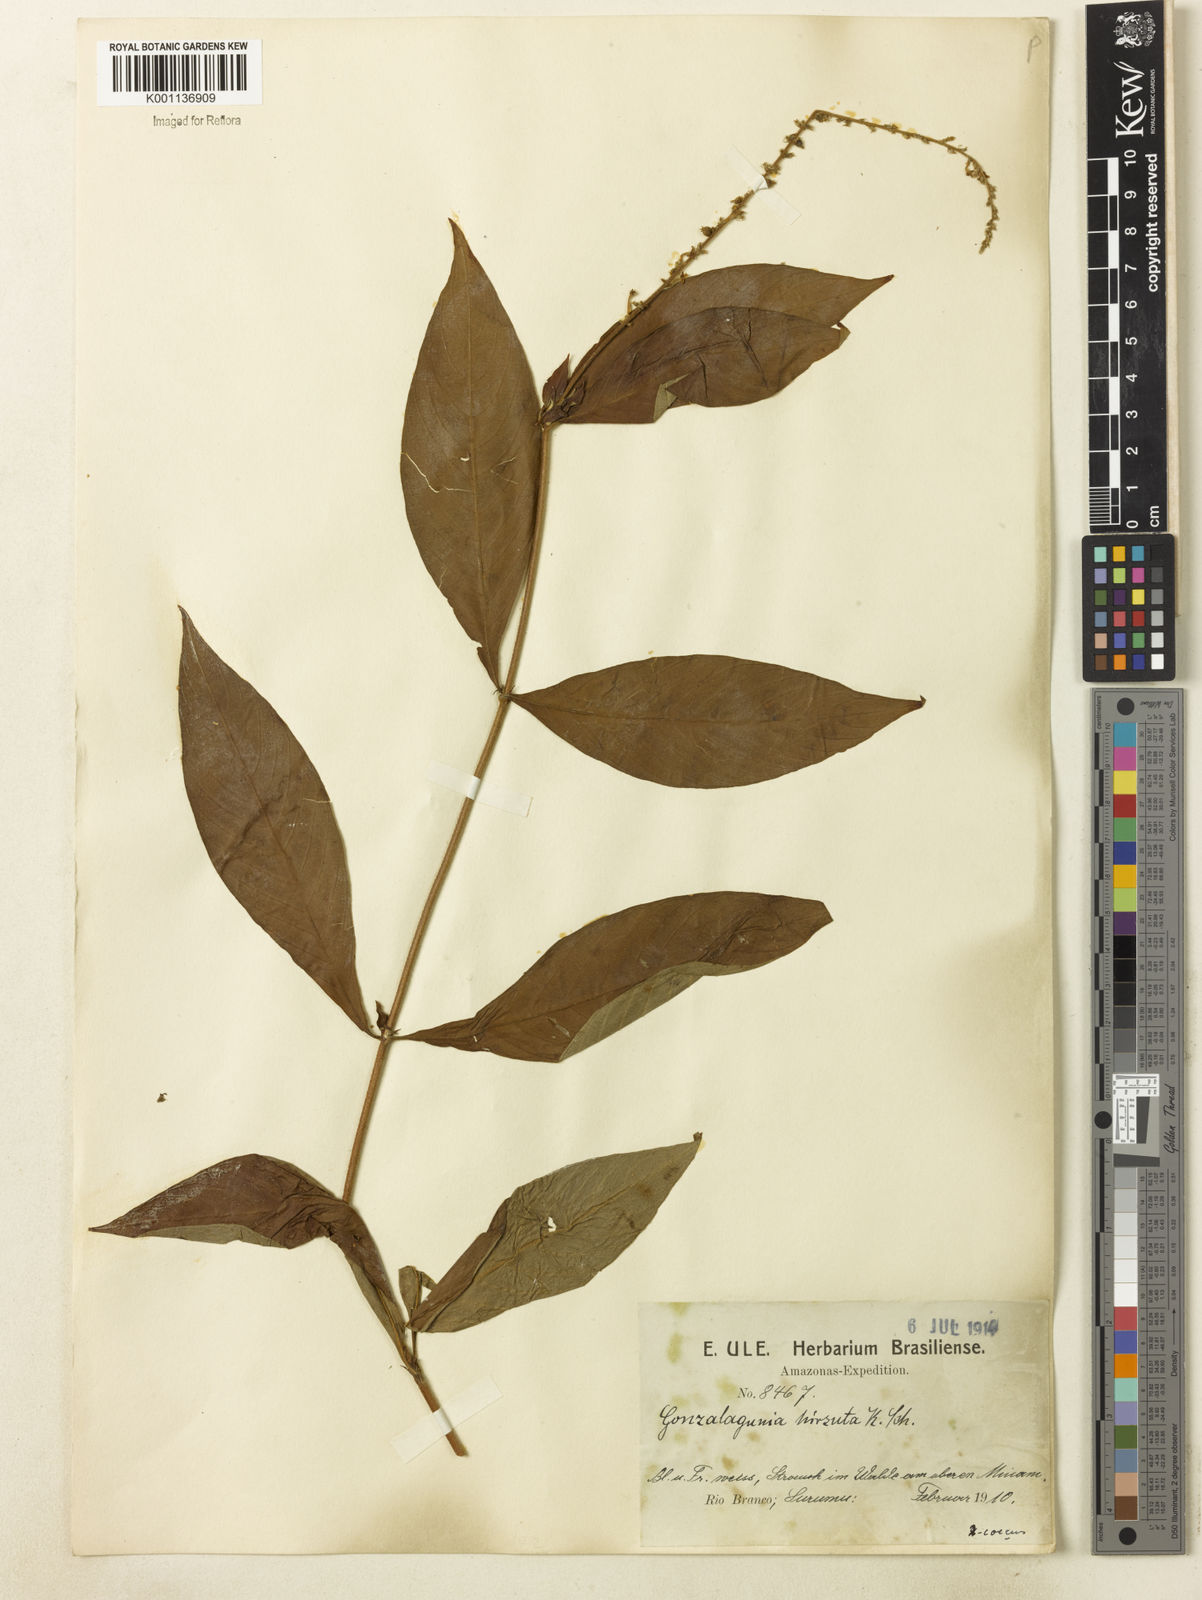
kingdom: Plantae
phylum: Tracheophyta
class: Magnoliopsida
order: Gentianales
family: Rubiaceae
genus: Gonzalagunia
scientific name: Gonzalagunia dicocca
